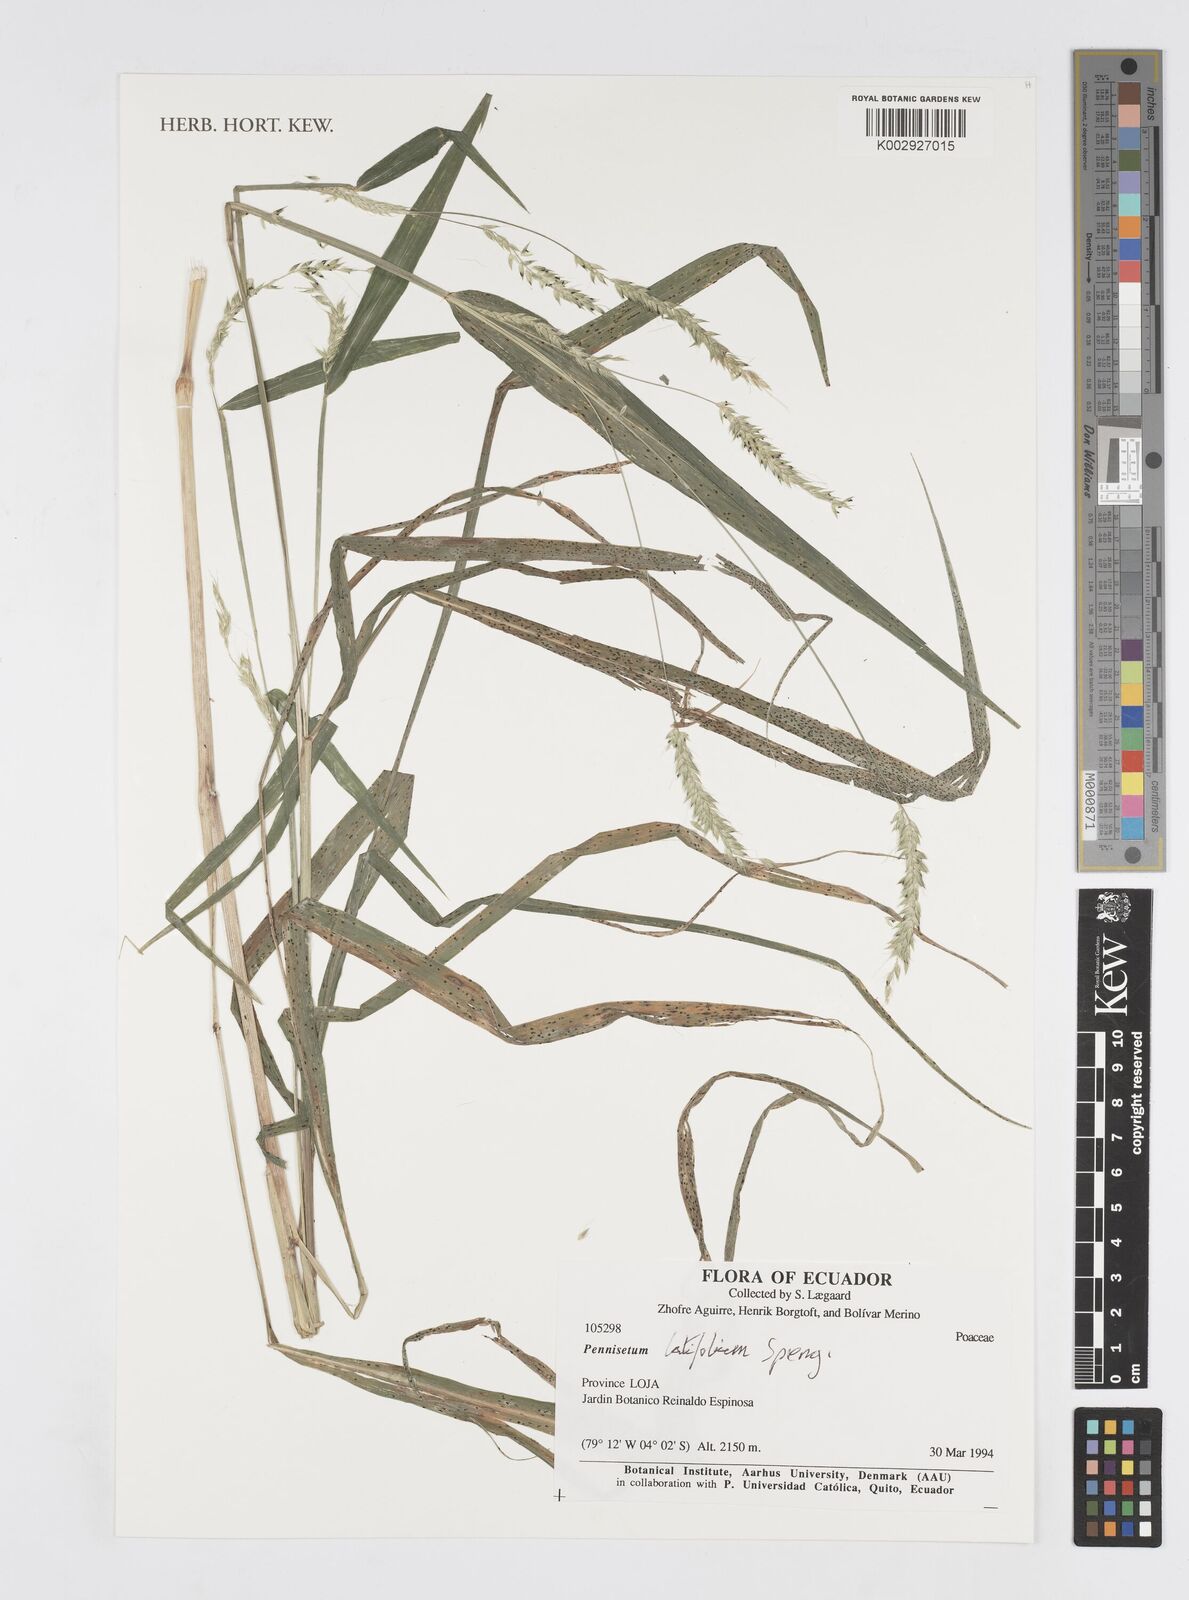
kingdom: Plantae
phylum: Tracheophyta
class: Liliopsida
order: Poales
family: Poaceae
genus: Cenchrus
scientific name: Cenchrus latifolius
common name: Sandbur
